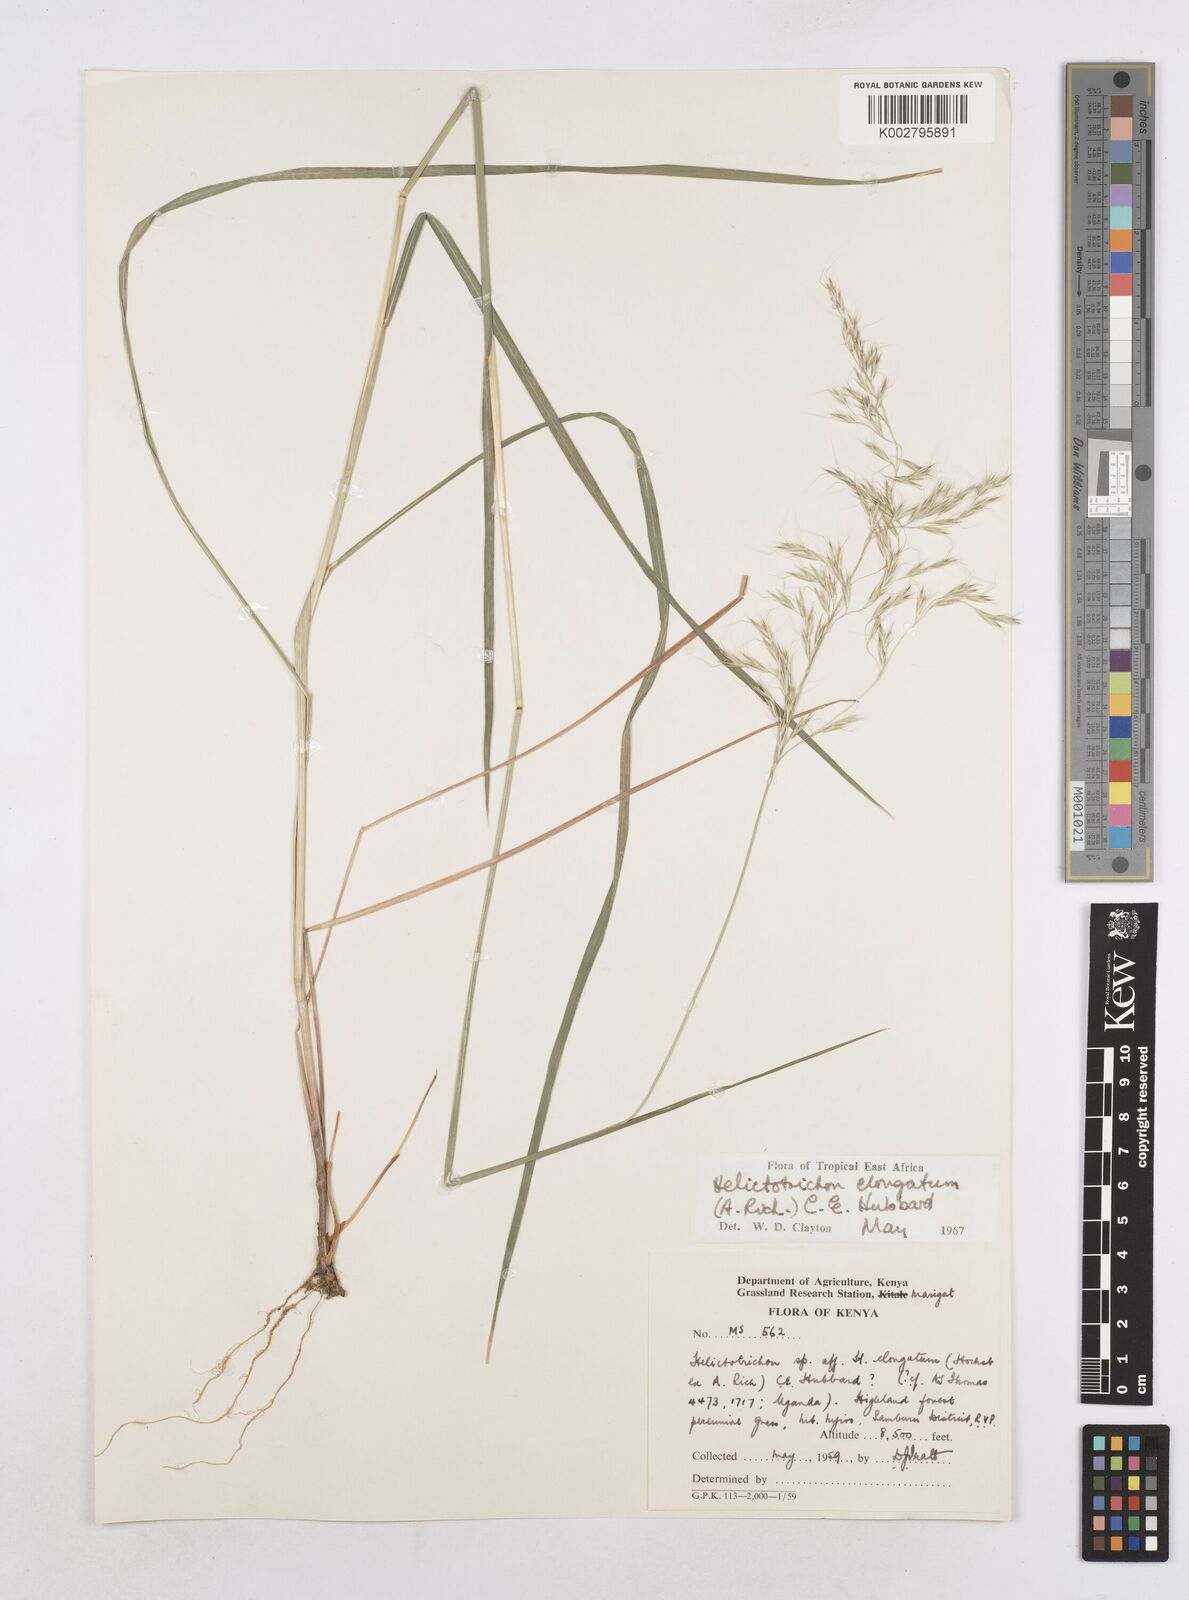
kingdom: Plantae
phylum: Tracheophyta
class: Liliopsida
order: Poales
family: Poaceae
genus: Trisetopsis
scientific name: Trisetopsis elongata
